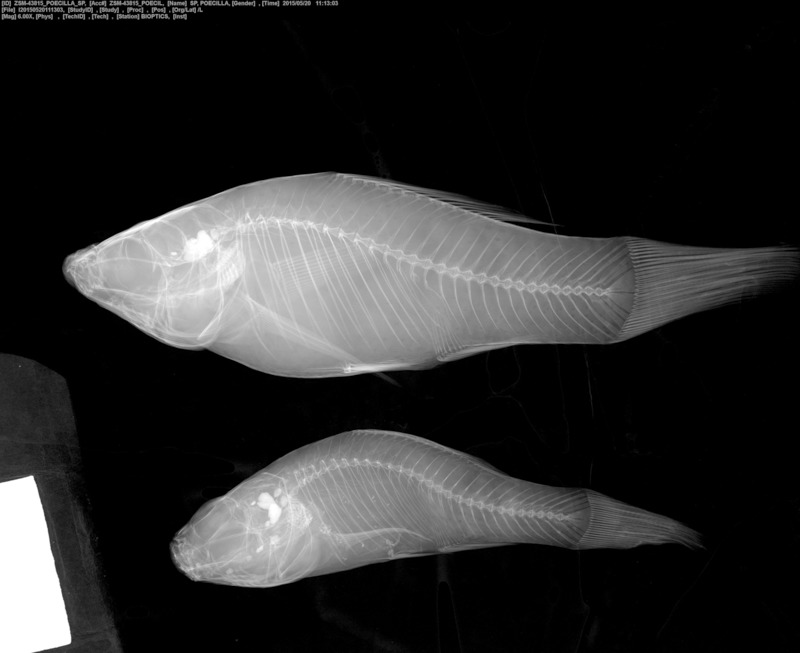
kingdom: Animalia
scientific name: Animalia
